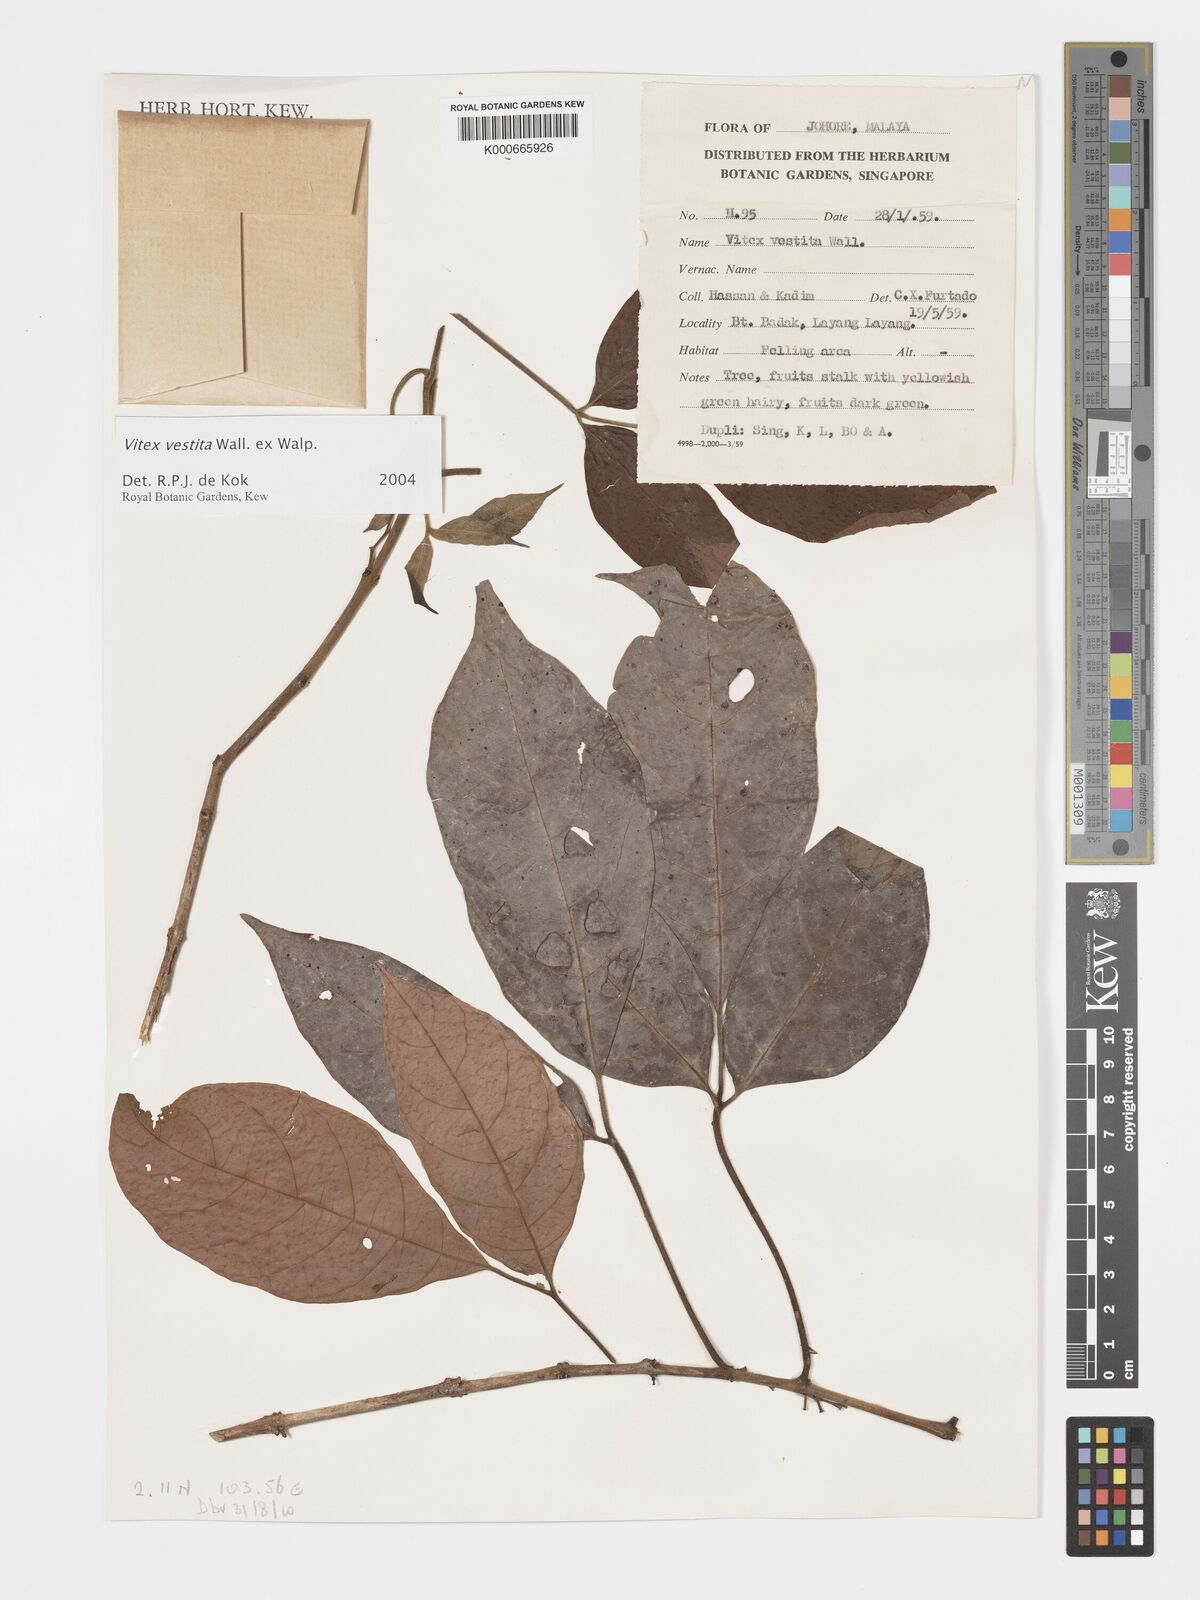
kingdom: Plantae
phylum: Tracheophyta
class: Magnoliopsida
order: Lamiales
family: Lamiaceae
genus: Vitex
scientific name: Vitex vestita
